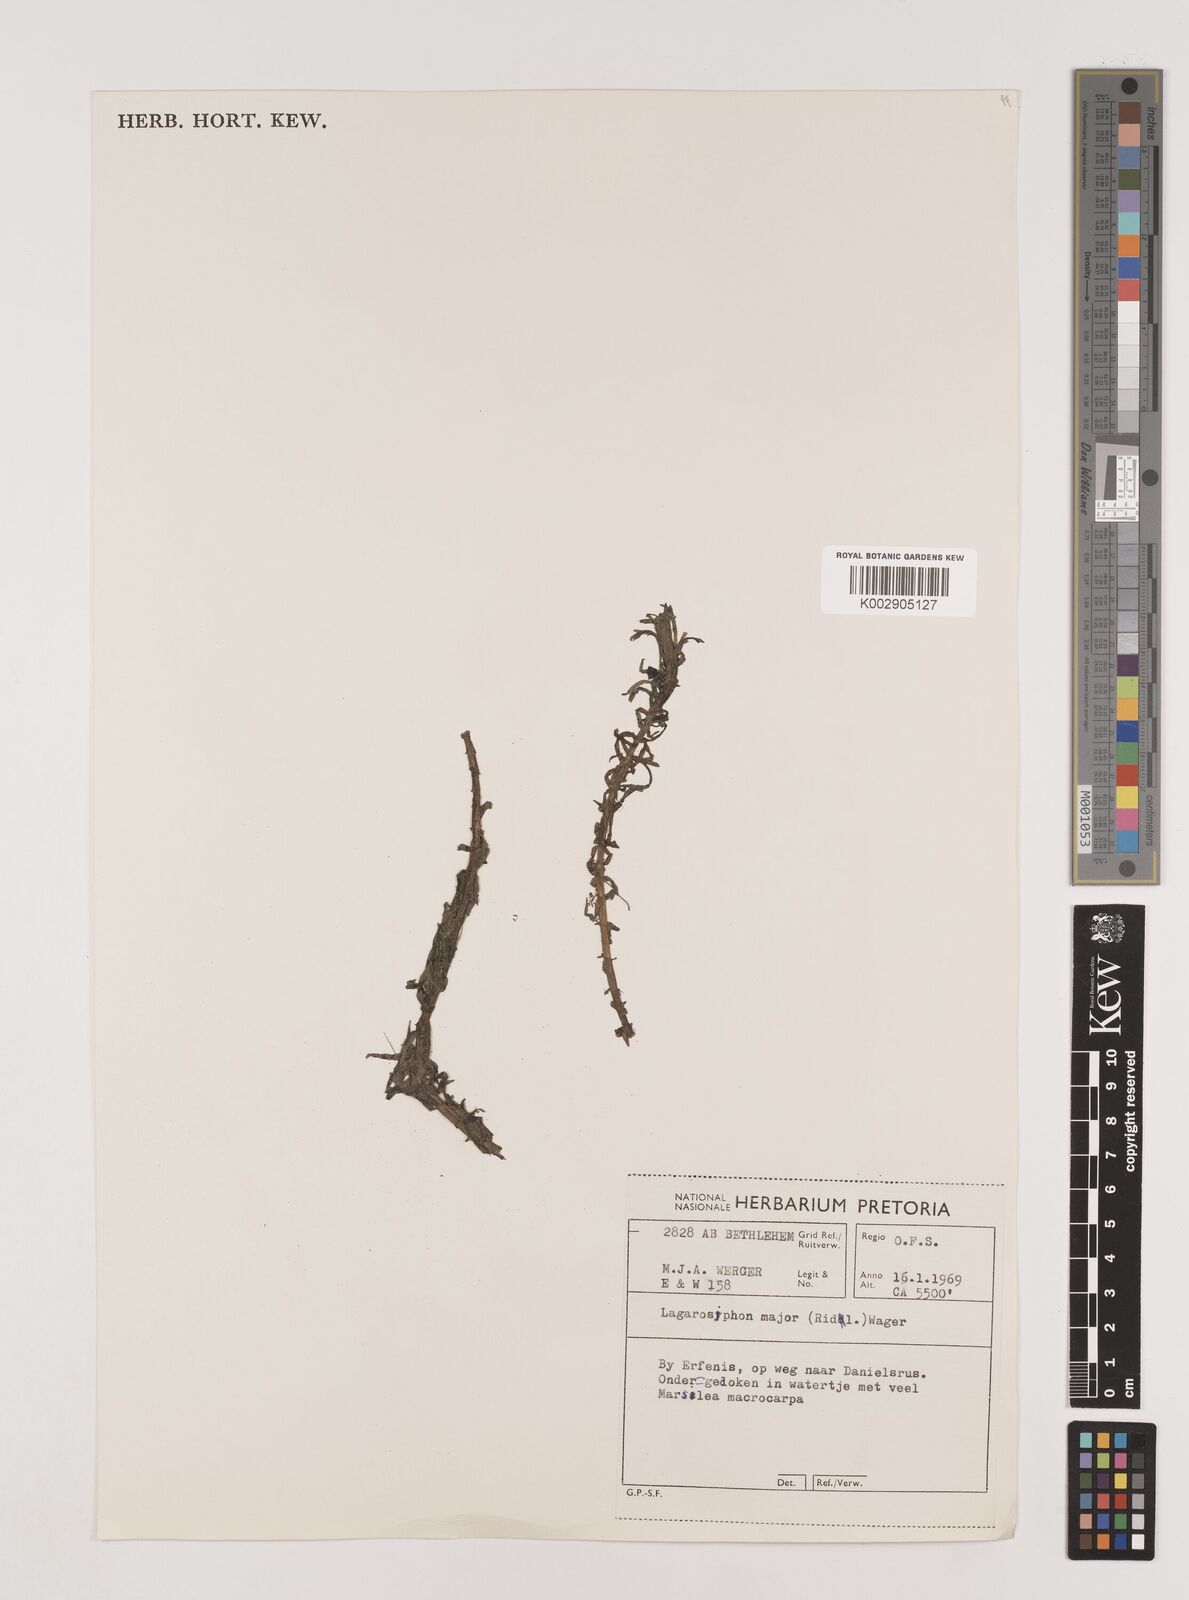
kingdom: Plantae
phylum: Tracheophyta
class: Liliopsida
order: Alismatales
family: Hydrocharitaceae
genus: Lagarosiphon
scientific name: Lagarosiphon major
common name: Curly waterweed
